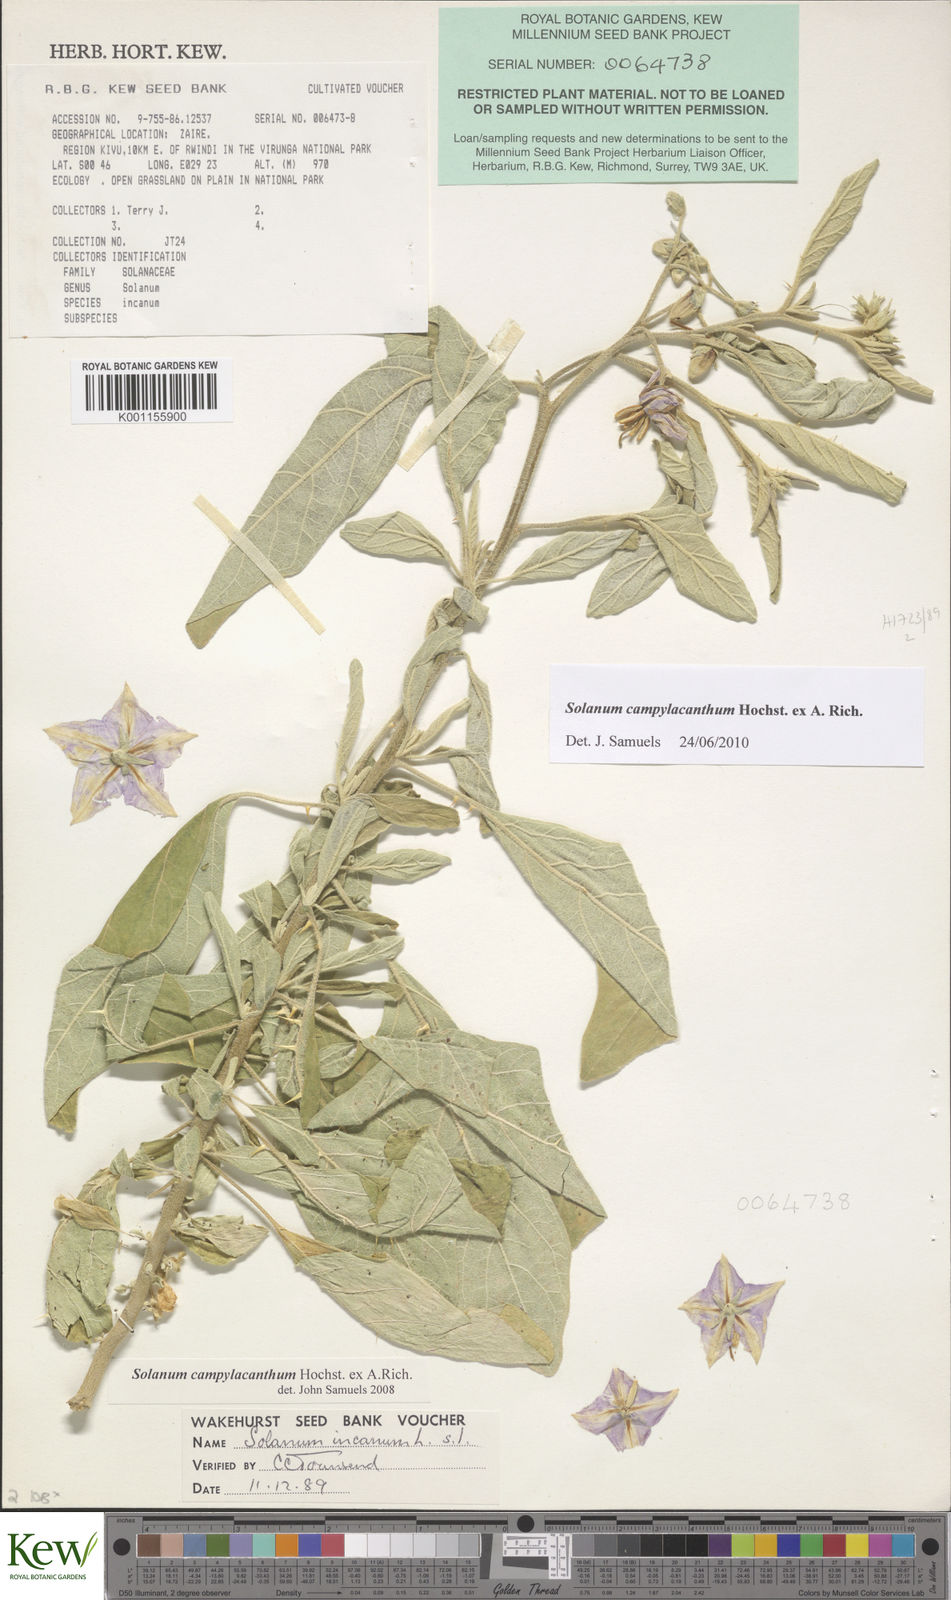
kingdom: Plantae
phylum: Tracheophyta
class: Magnoliopsida
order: Solanales
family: Solanaceae
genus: Solanum
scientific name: Solanum campylacanthum
